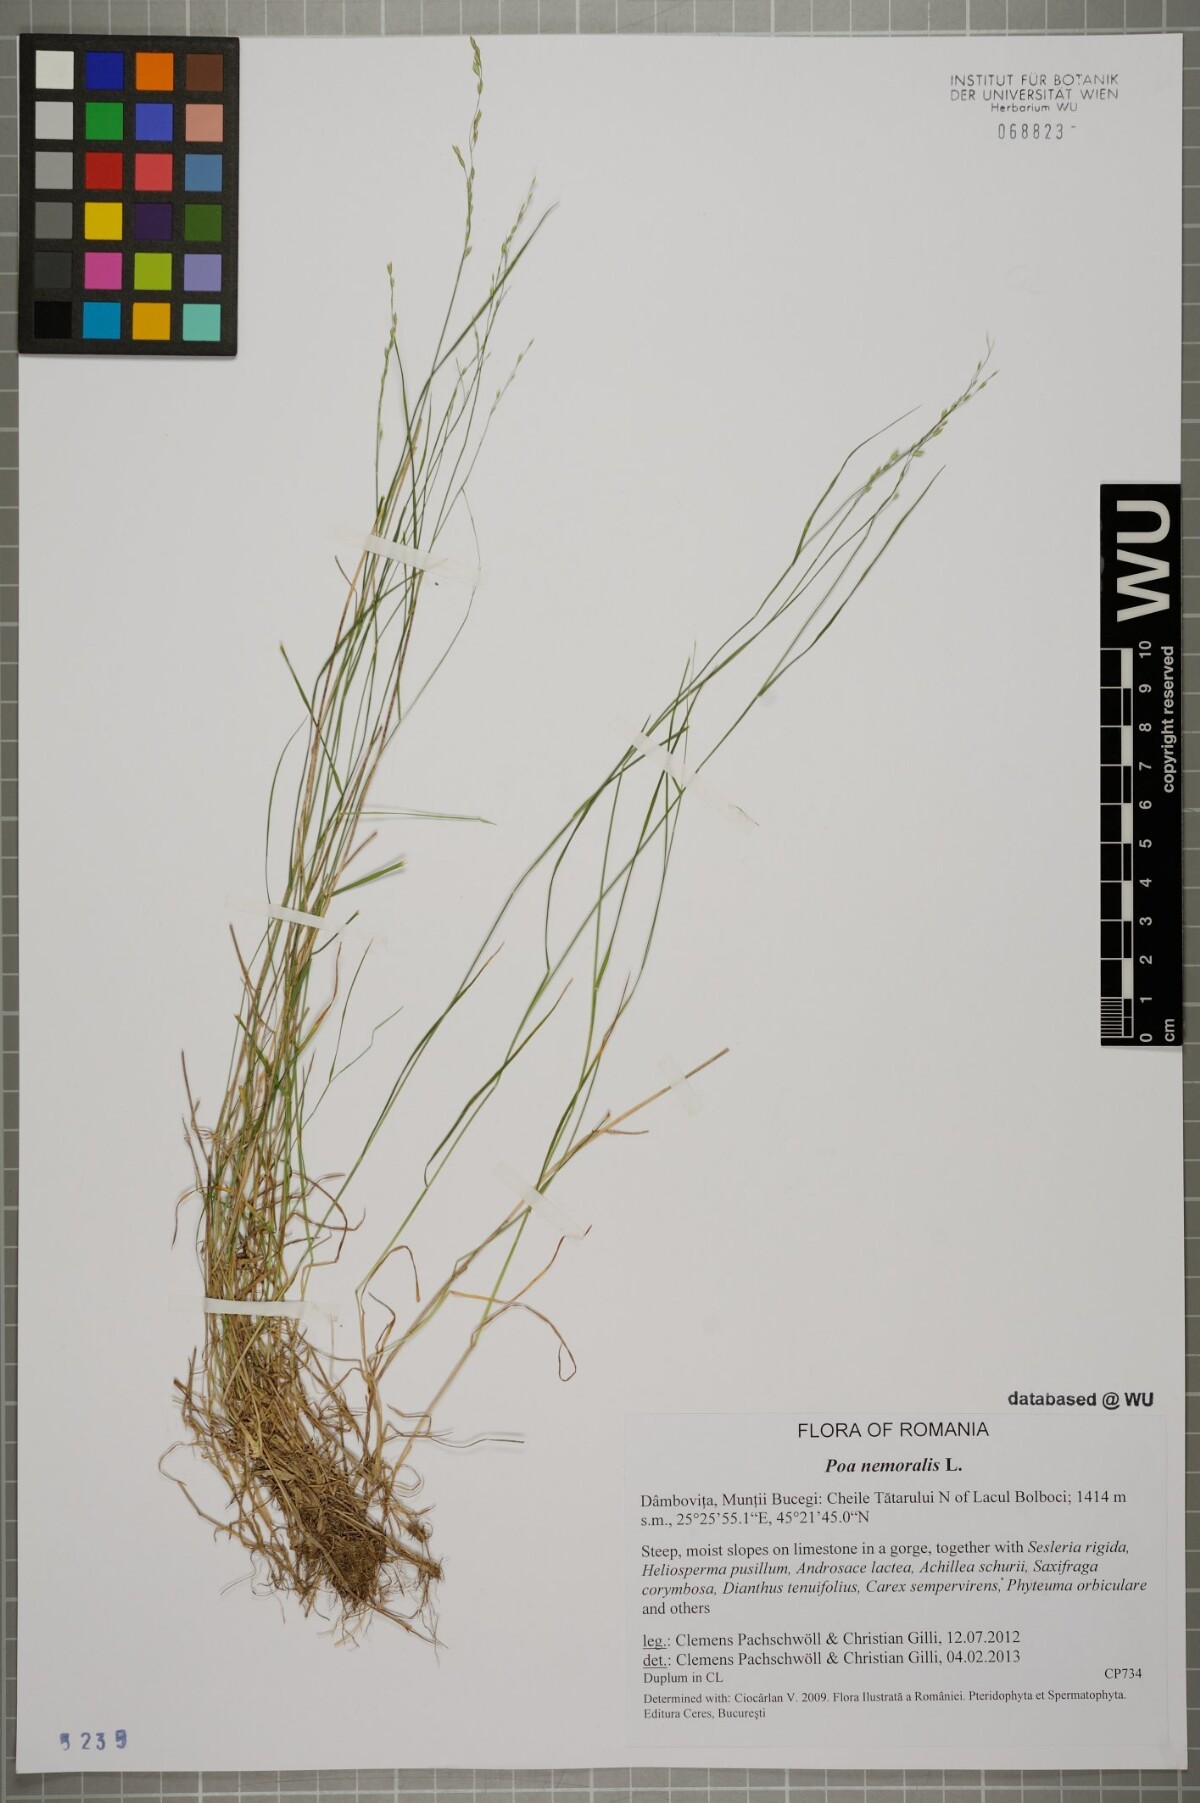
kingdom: Plantae
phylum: Tracheophyta
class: Liliopsida
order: Poales
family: Poaceae
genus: Poa
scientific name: Poa nemoralis
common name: Wood bluegrass
